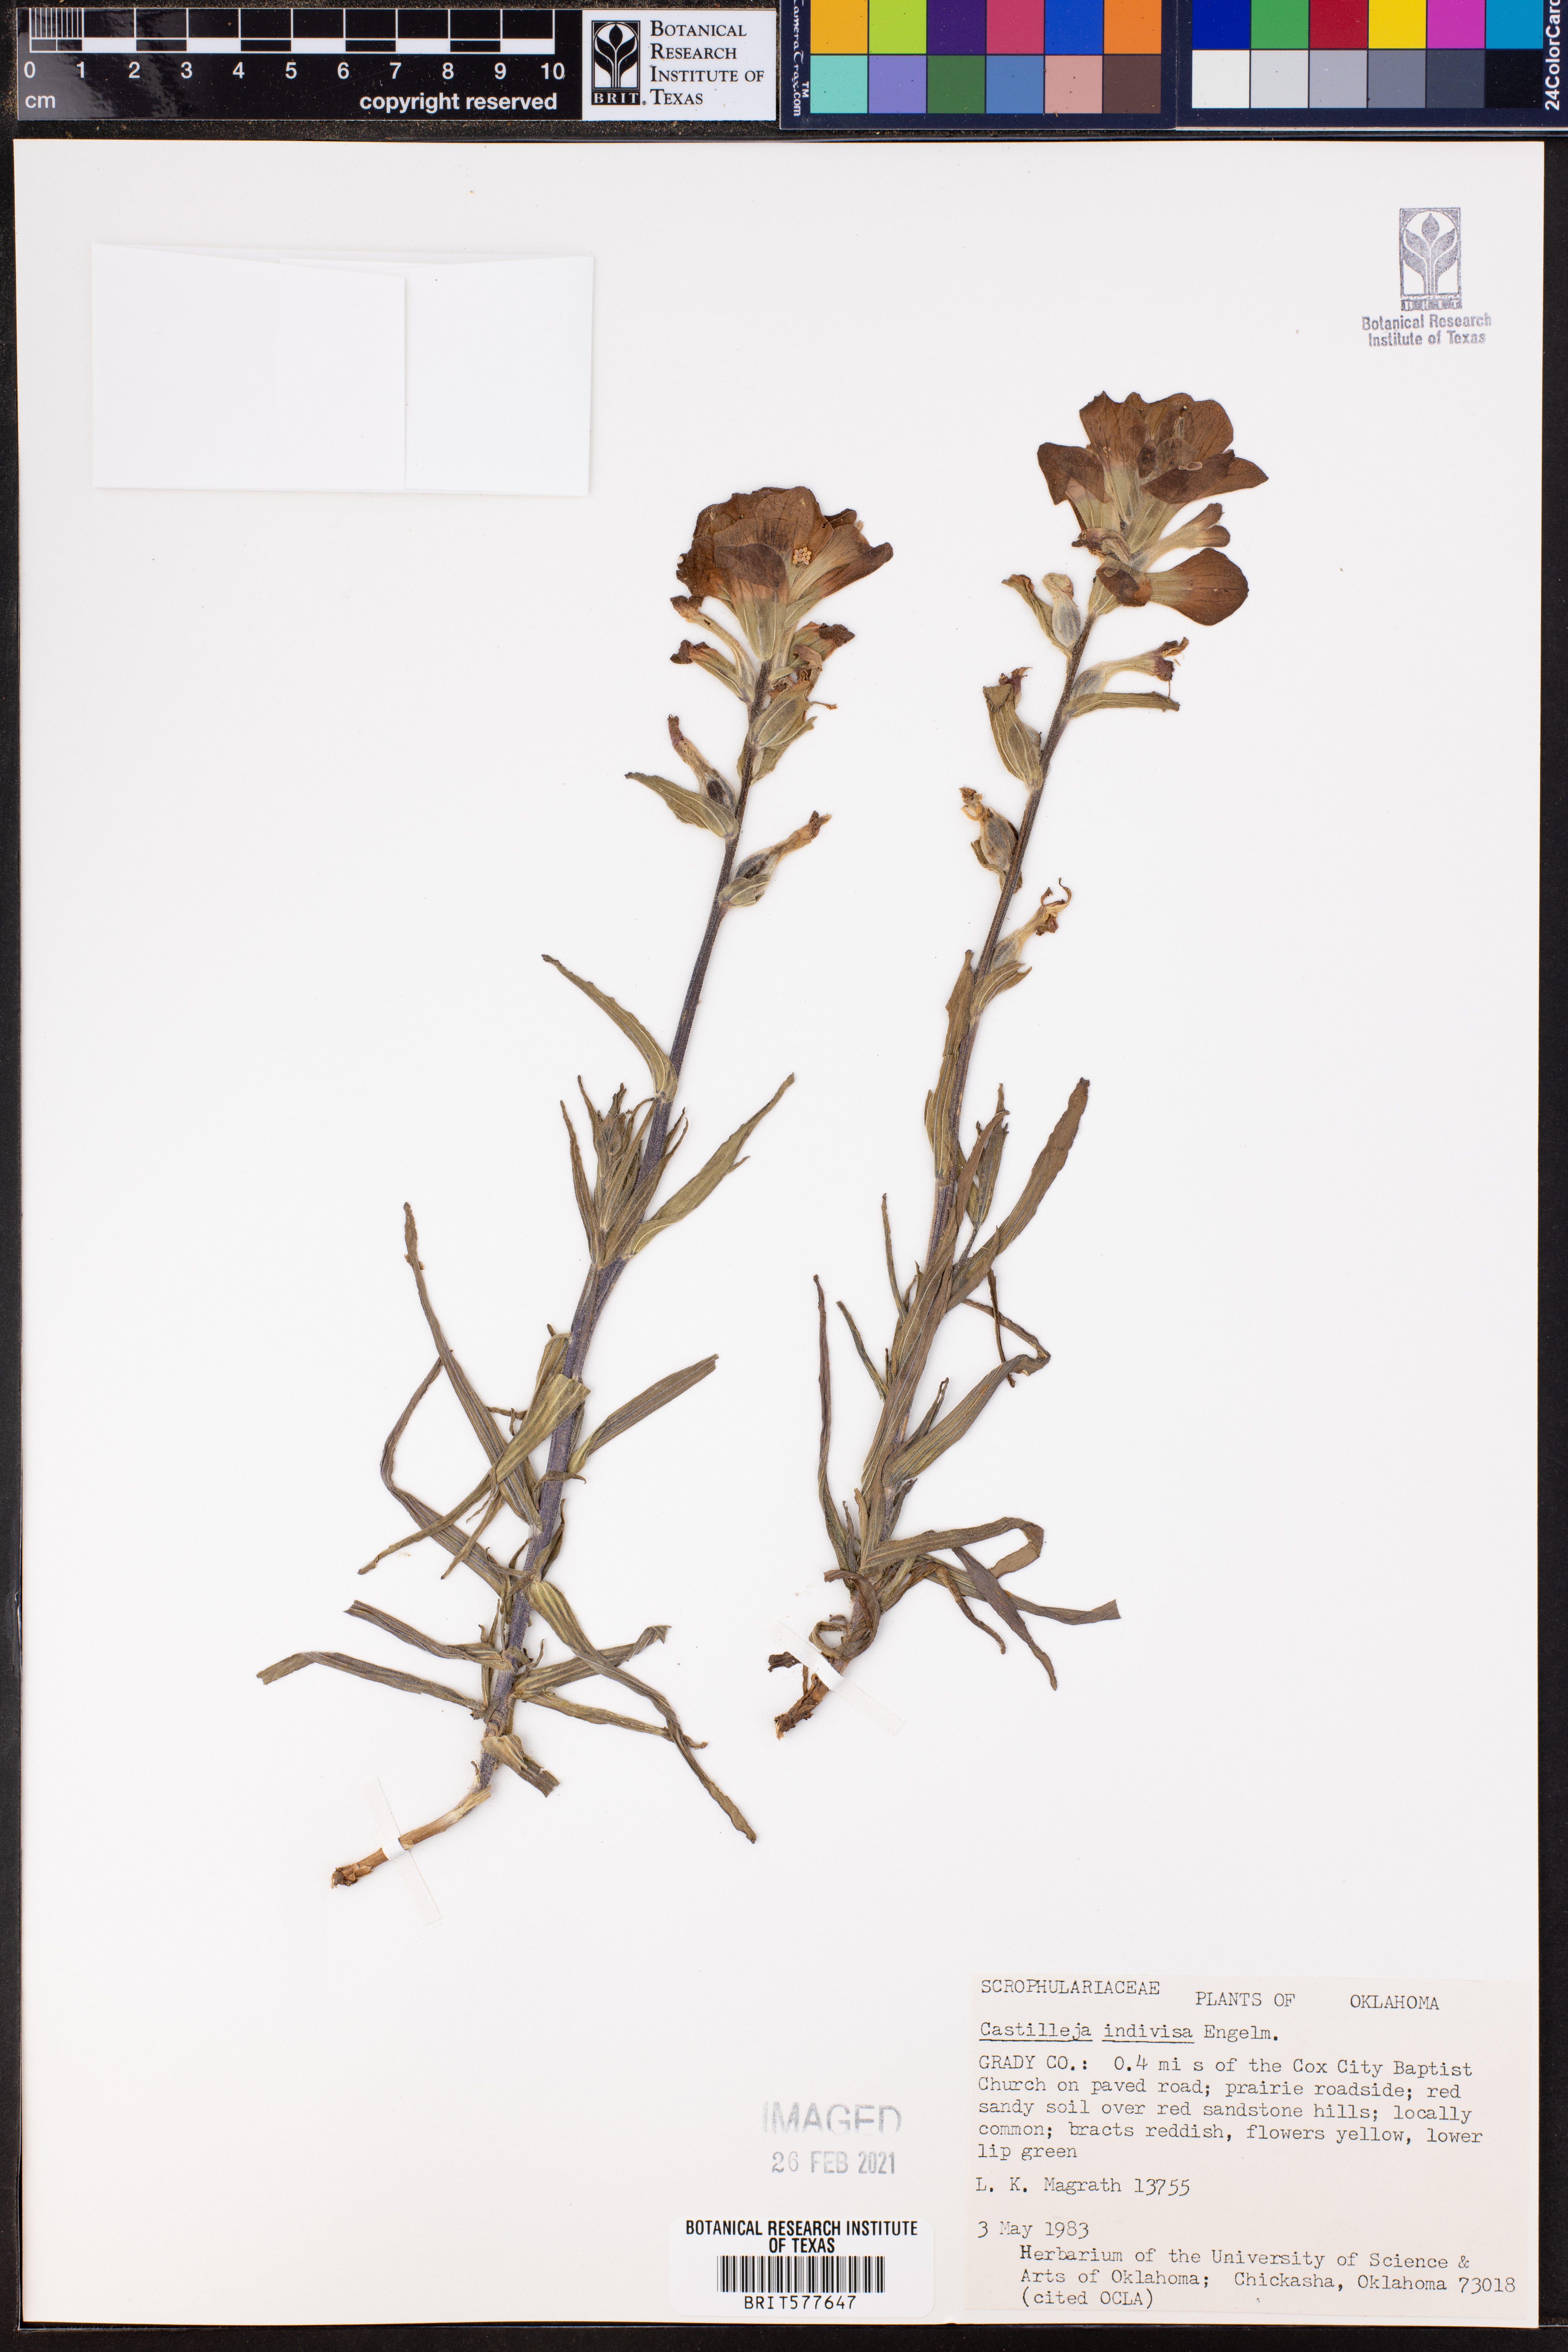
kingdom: Plantae
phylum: Tracheophyta
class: Magnoliopsida
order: Lamiales
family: Orobanchaceae
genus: Castilleja
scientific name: Castilleja indivisa
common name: Texas paintbrush
